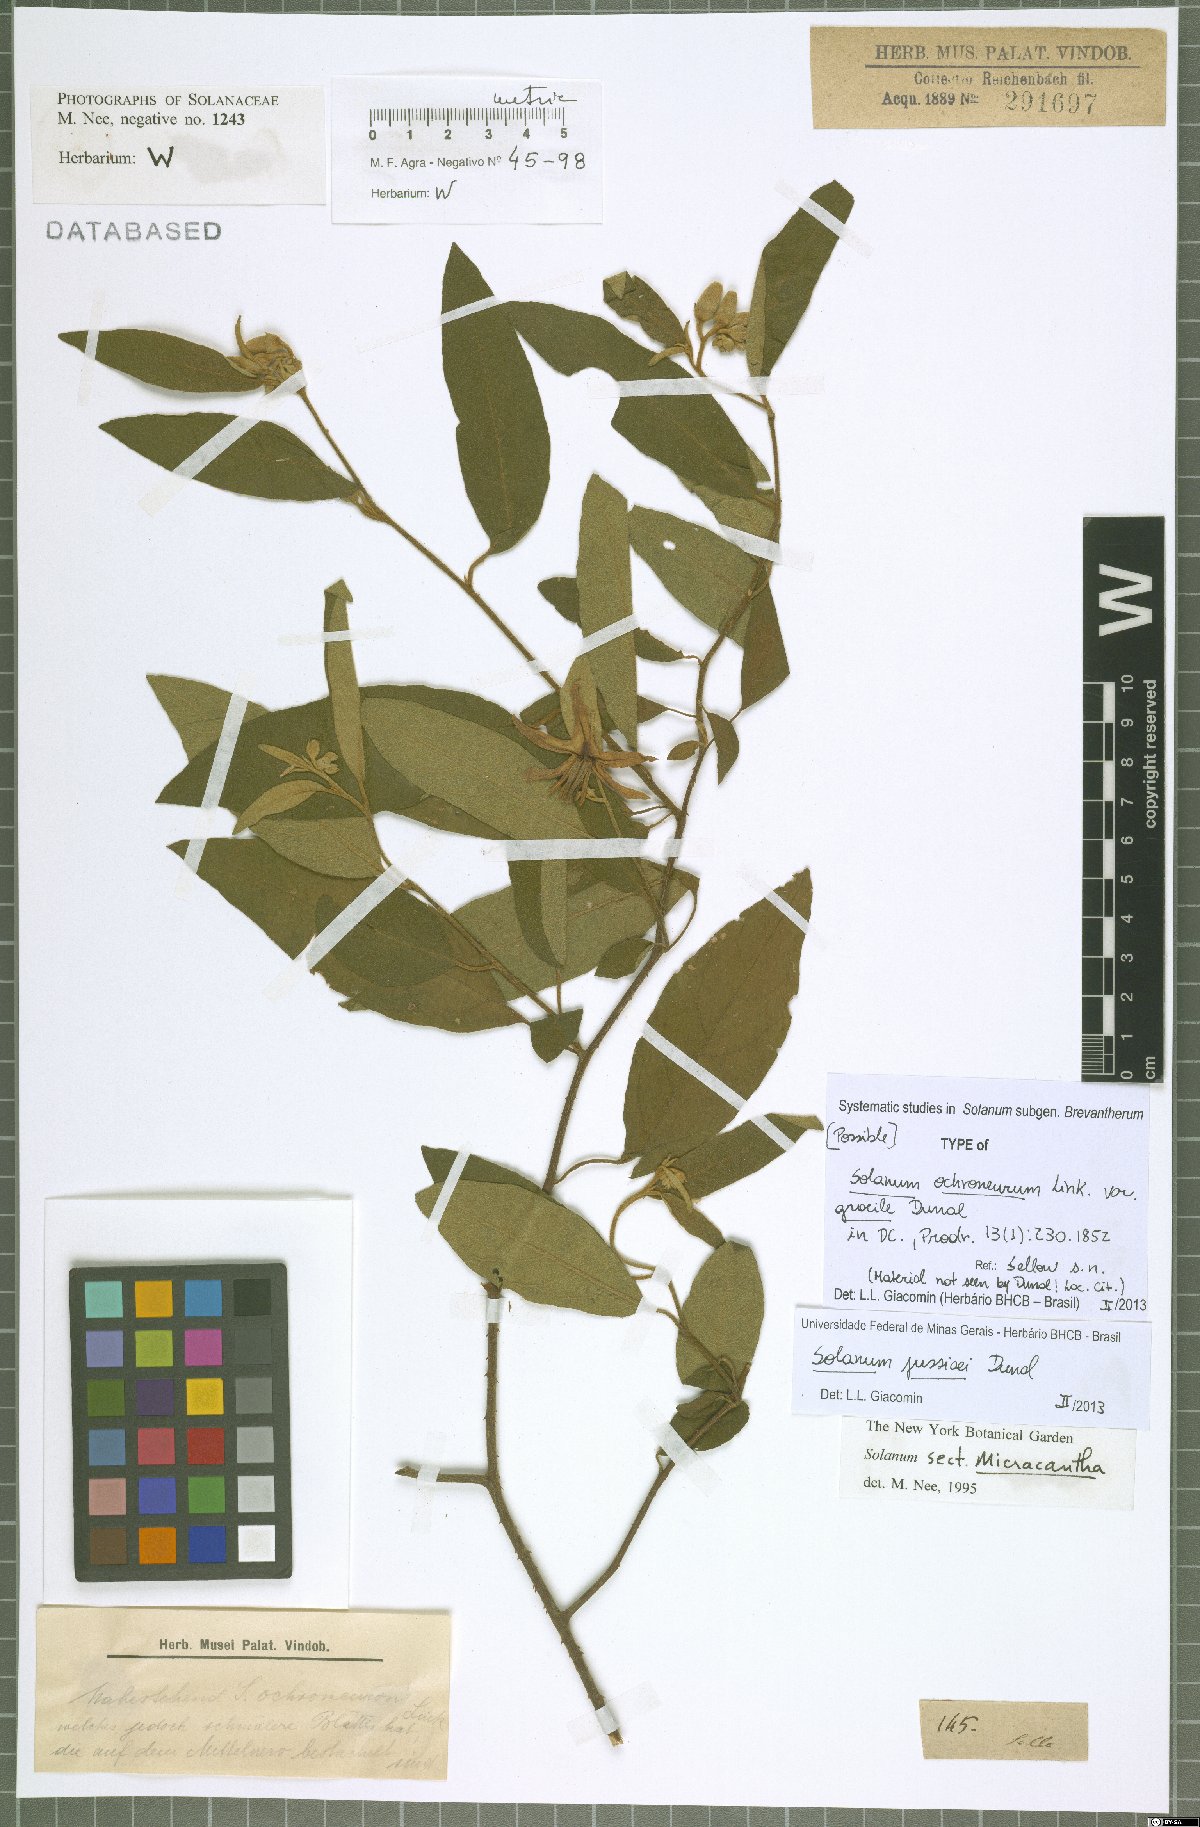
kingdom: Plantae
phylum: Tracheophyta
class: Magnoliopsida
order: Solanales
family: Solanaceae
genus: Solanum
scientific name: Solanum jussiaei
